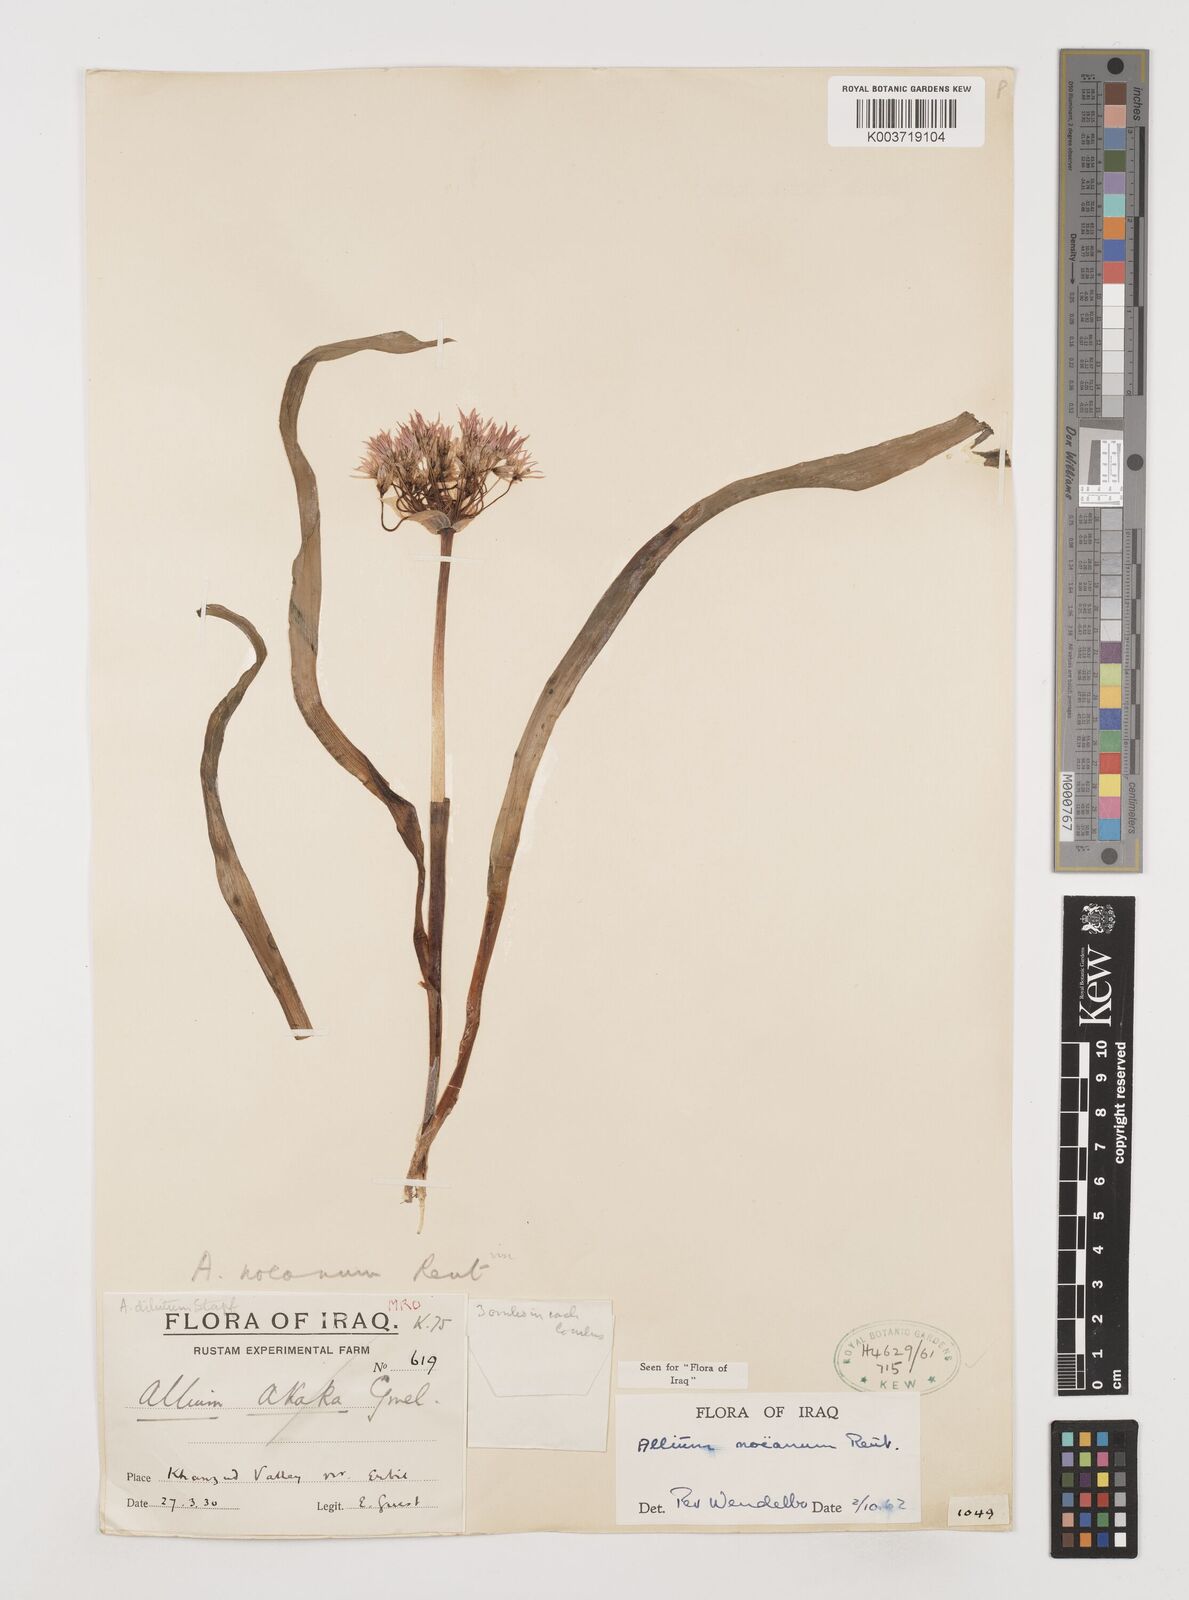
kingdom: Plantae
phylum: Tracheophyta
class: Liliopsida
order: Asparagales
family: Amaryllidaceae
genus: Allium
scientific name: Allium noeanum
